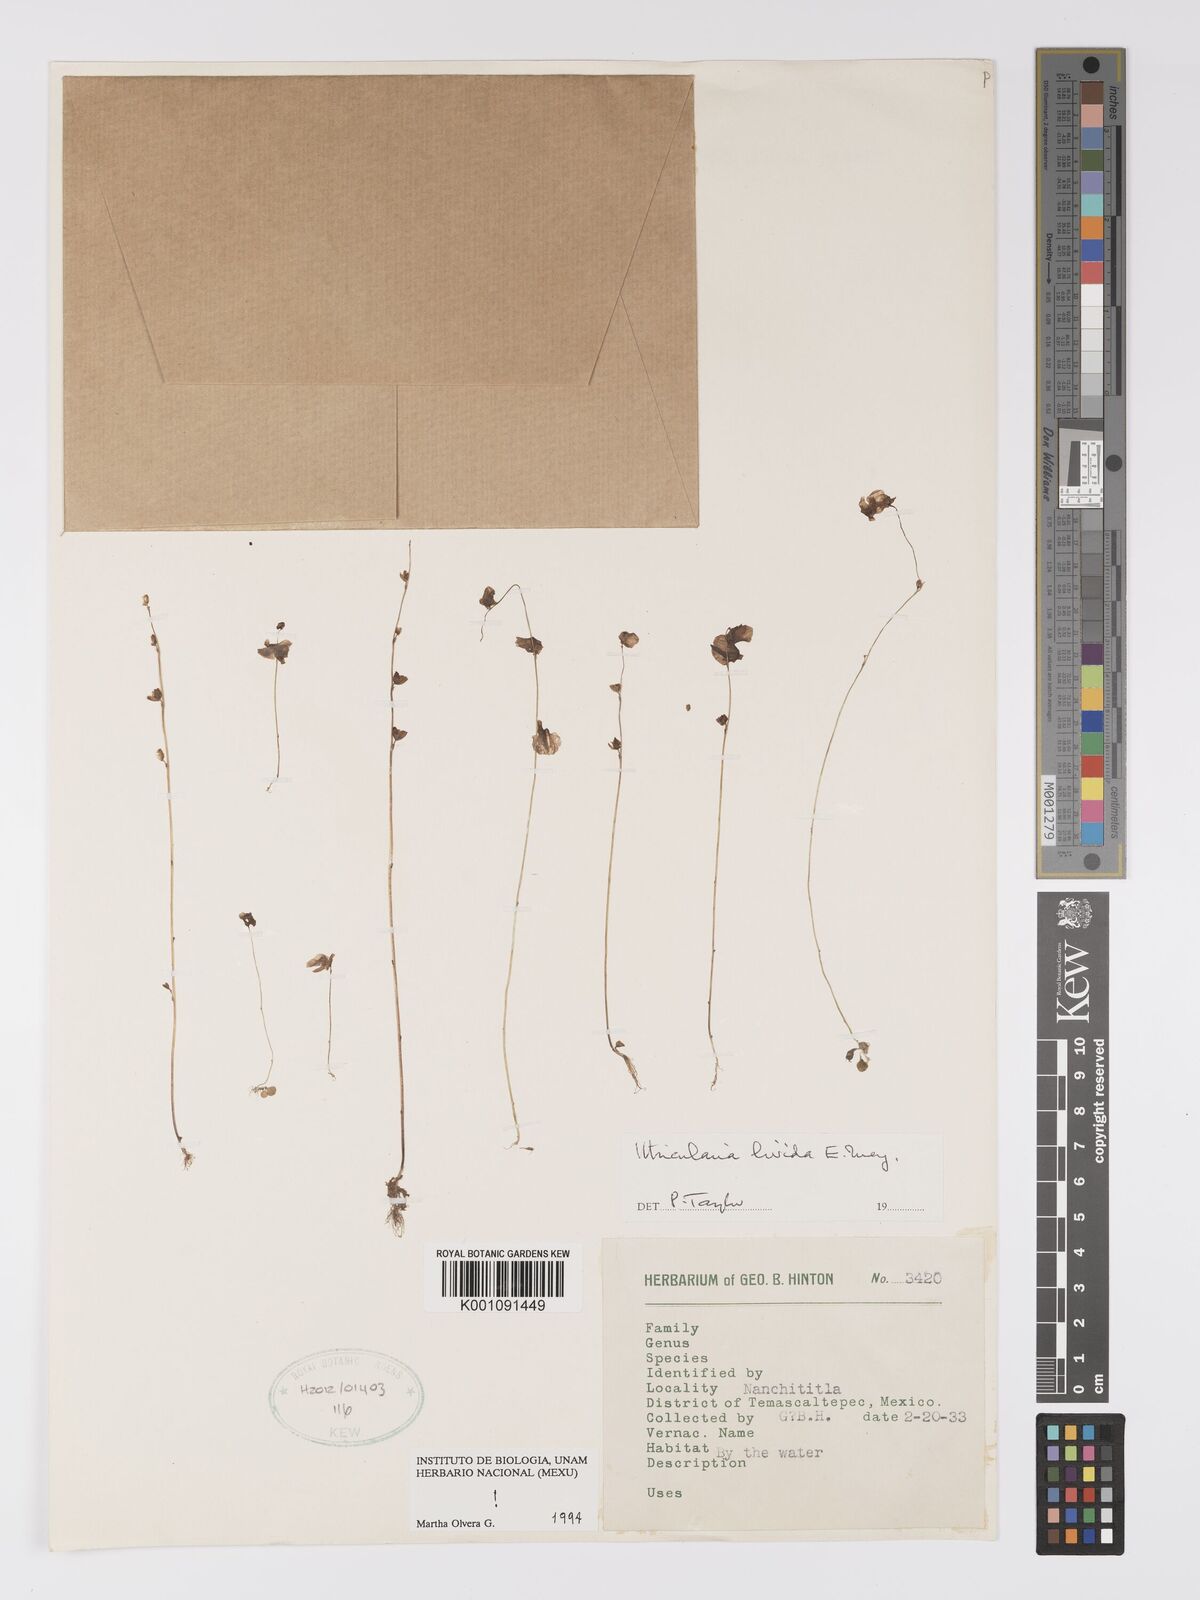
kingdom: Plantae
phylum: Tracheophyta
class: Magnoliopsida
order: Lamiales
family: Lentibulariaceae
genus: Utricularia
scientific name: Utricularia livida
